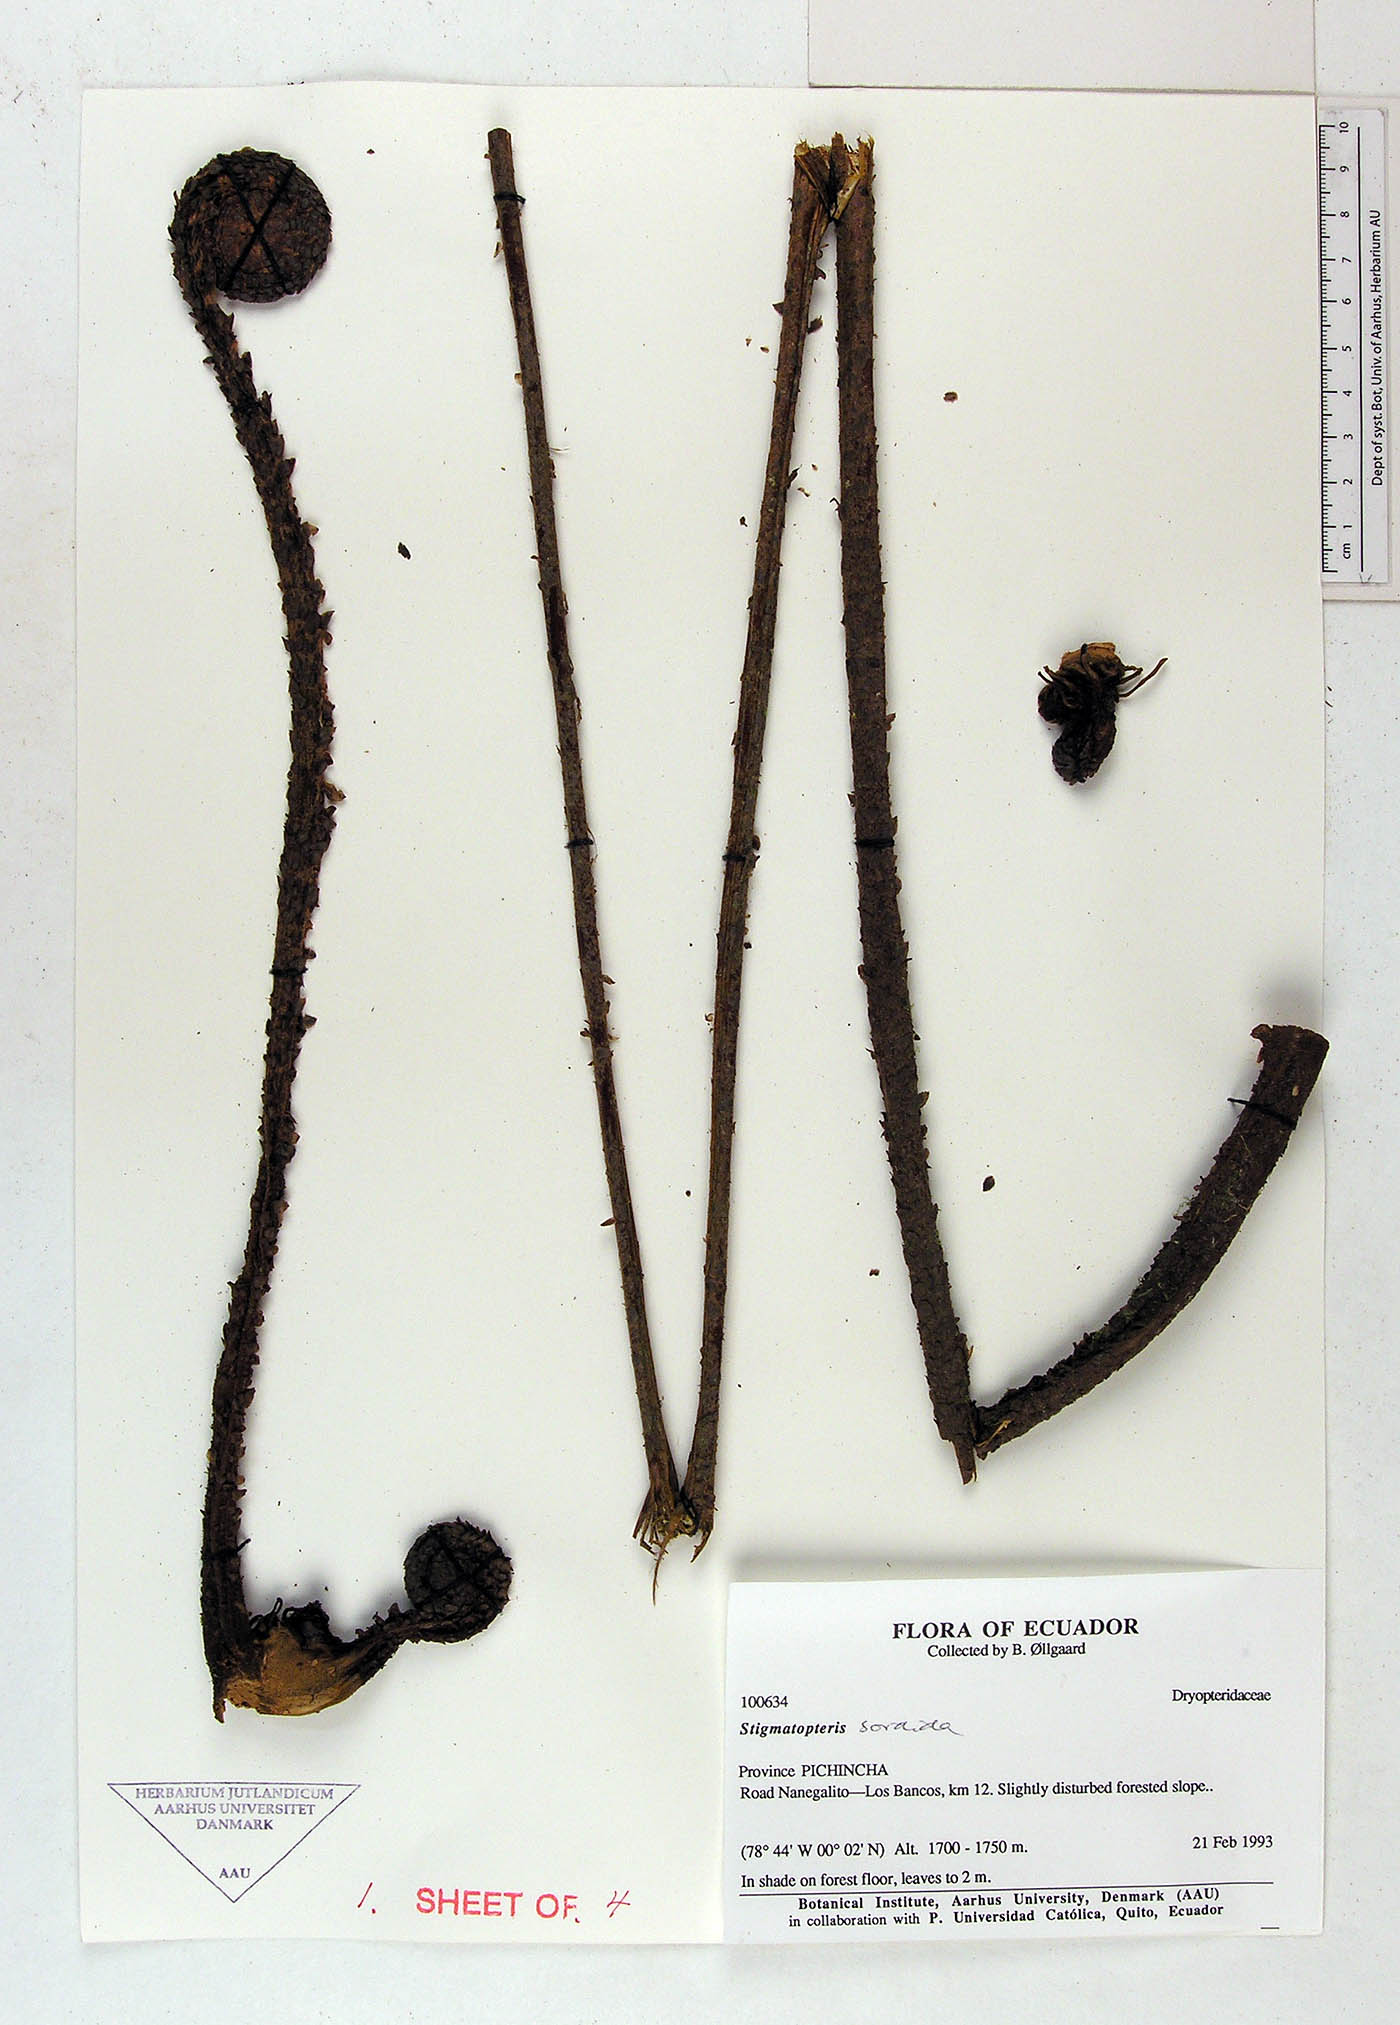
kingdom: Plantae
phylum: Tracheophyta
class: Polypodiopsida
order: Polypodiales
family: Dryopteridaceae
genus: Stigmatopteris
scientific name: Stigmatopteris sordida
